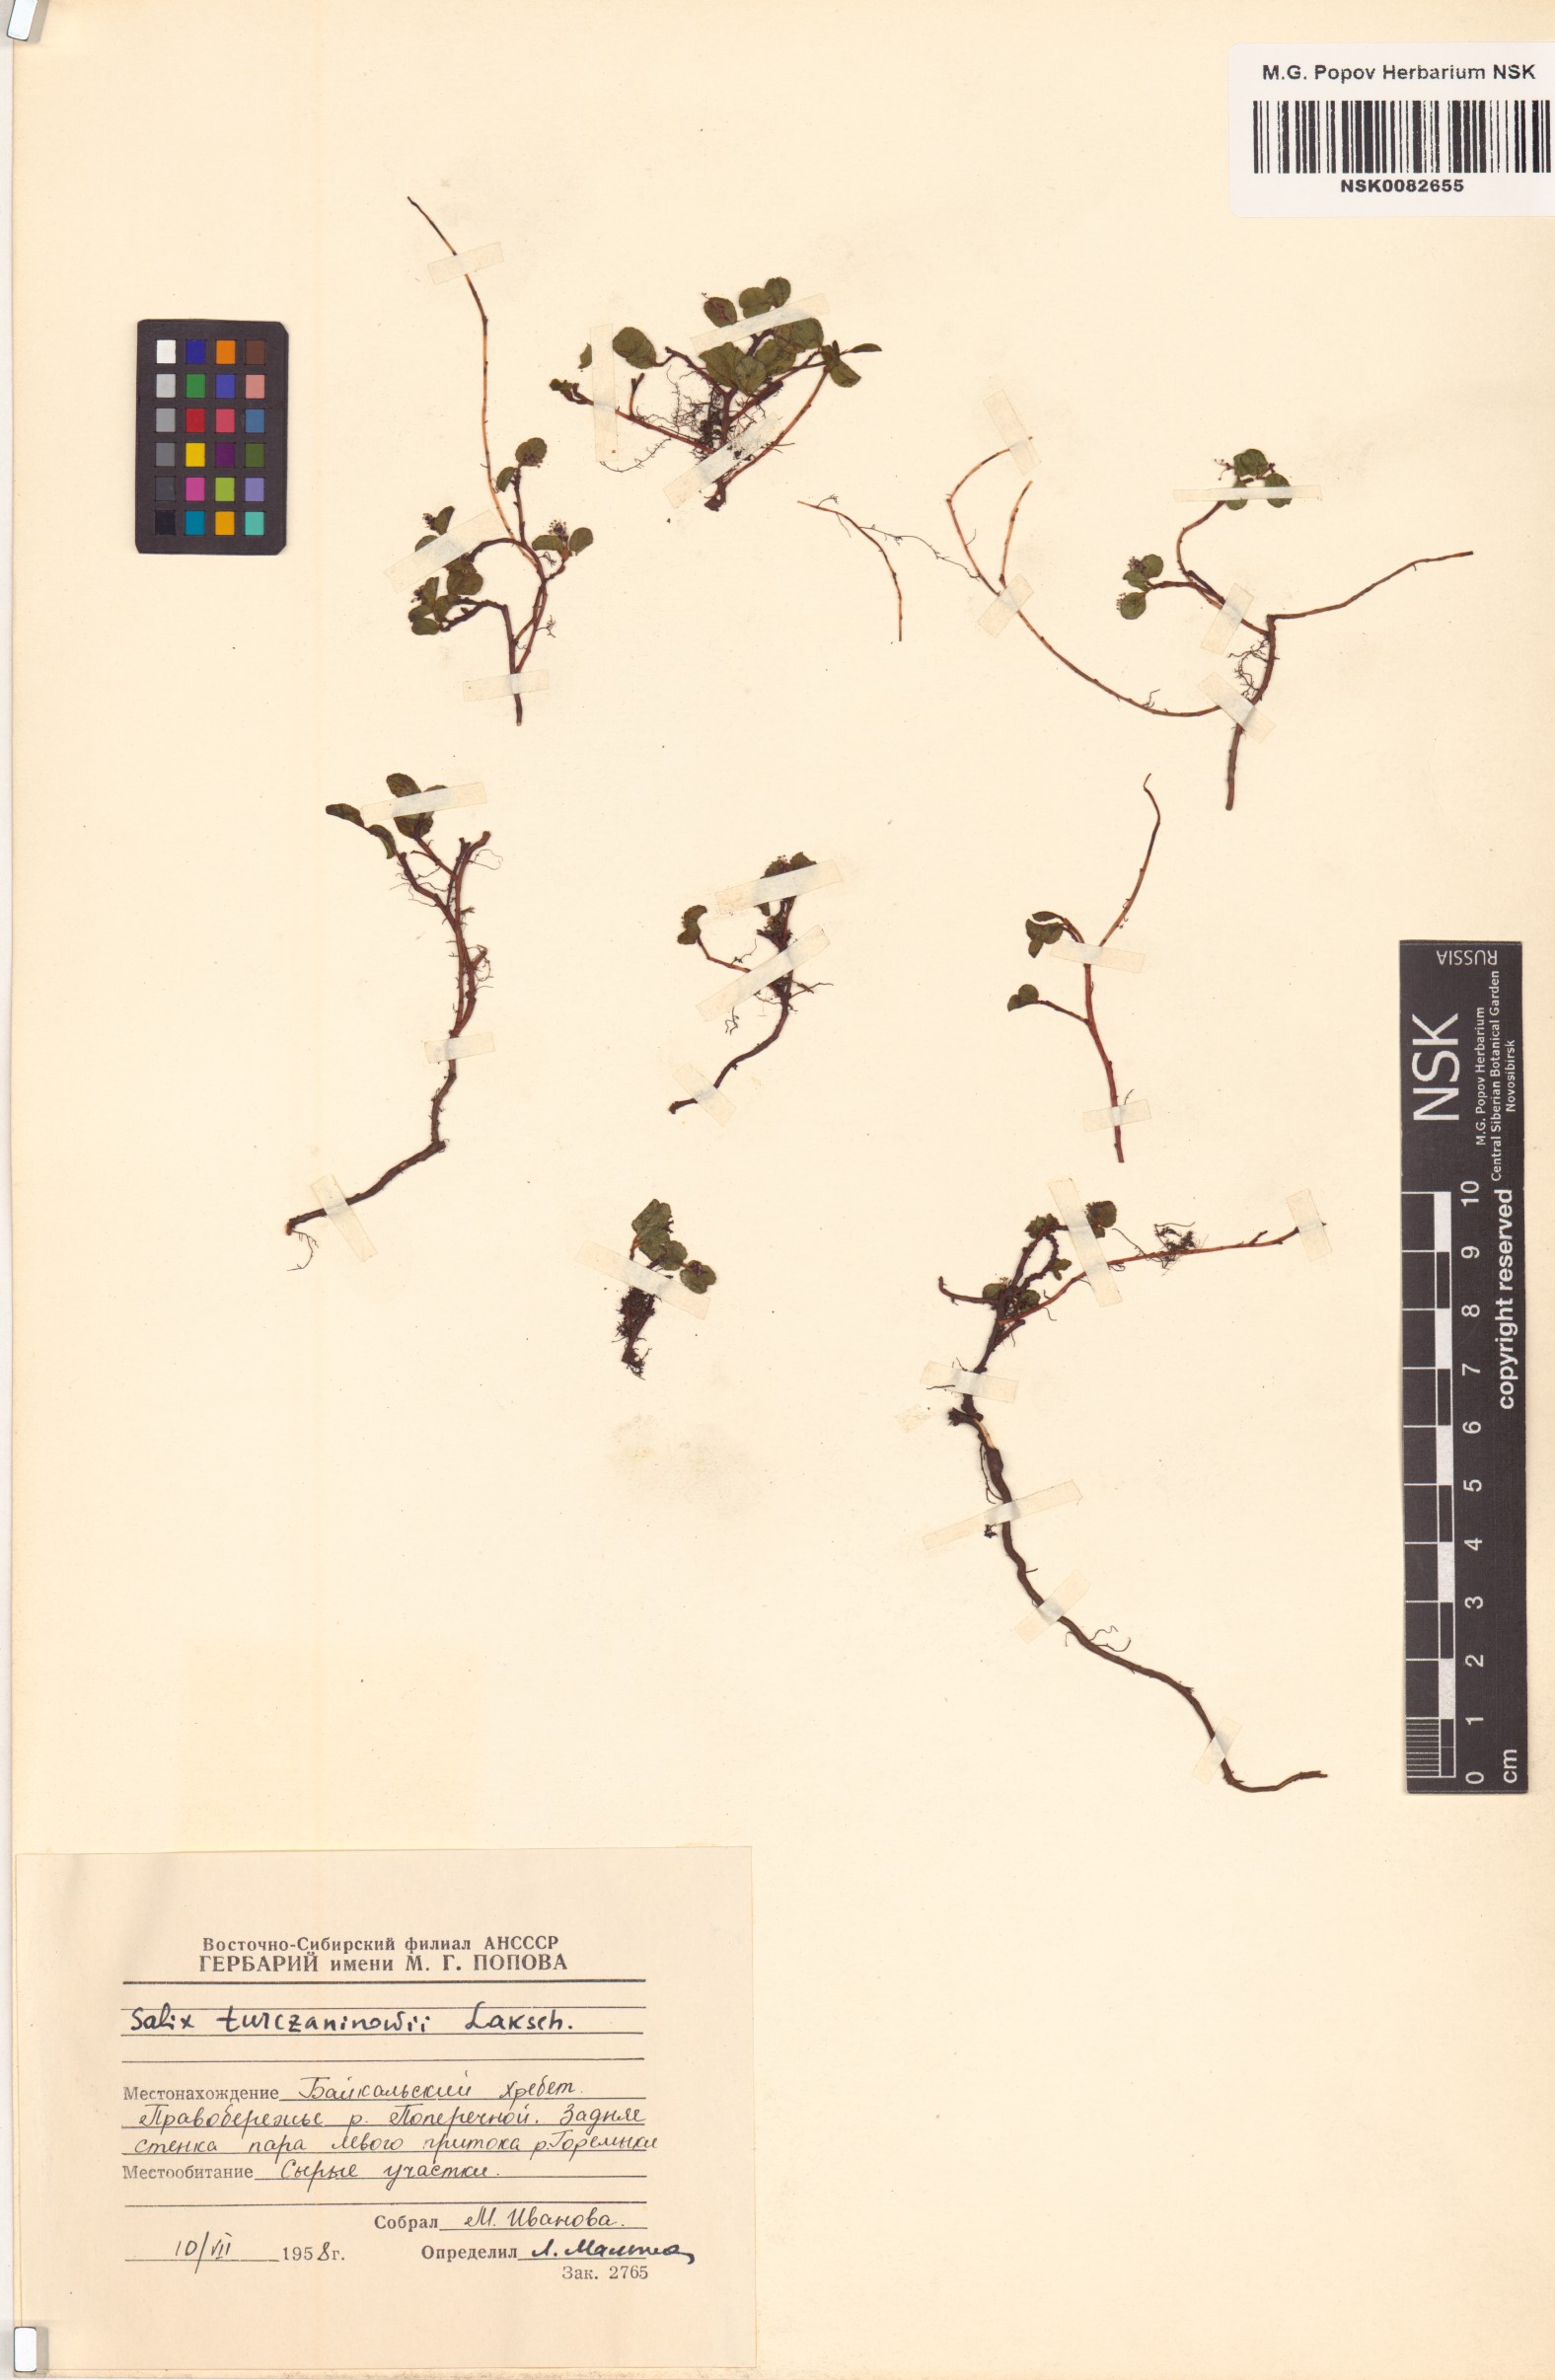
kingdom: Plantae
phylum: Tracheophyta
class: Magnoliopsida
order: Malpighiales
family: Salicaceae
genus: Salix
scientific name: Salix turczaninowii
